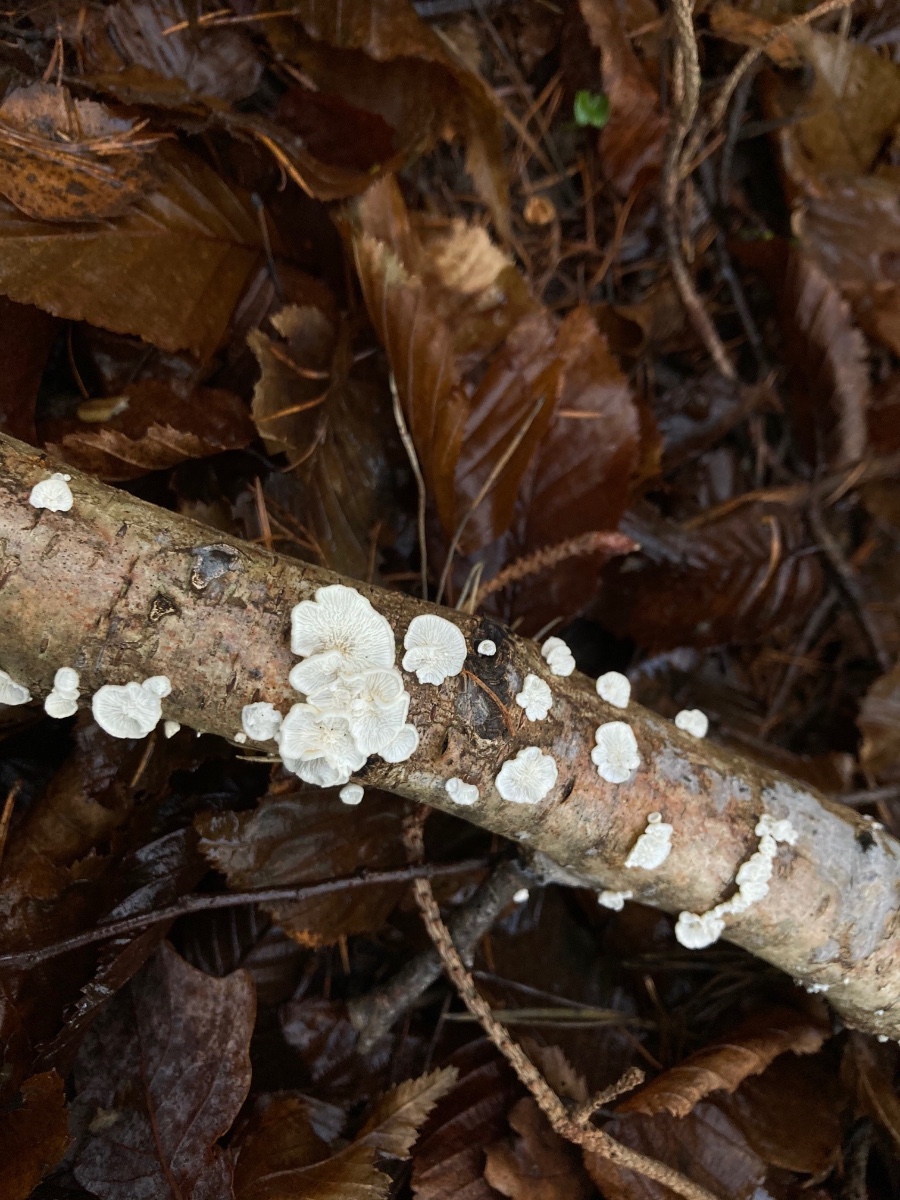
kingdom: Fungi
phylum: Basidiomycota
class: Agaricomycetes
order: Amylocorticiales
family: Amylocorticiaceae
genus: Plicaturopsis
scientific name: Plicaturopsis crispa
